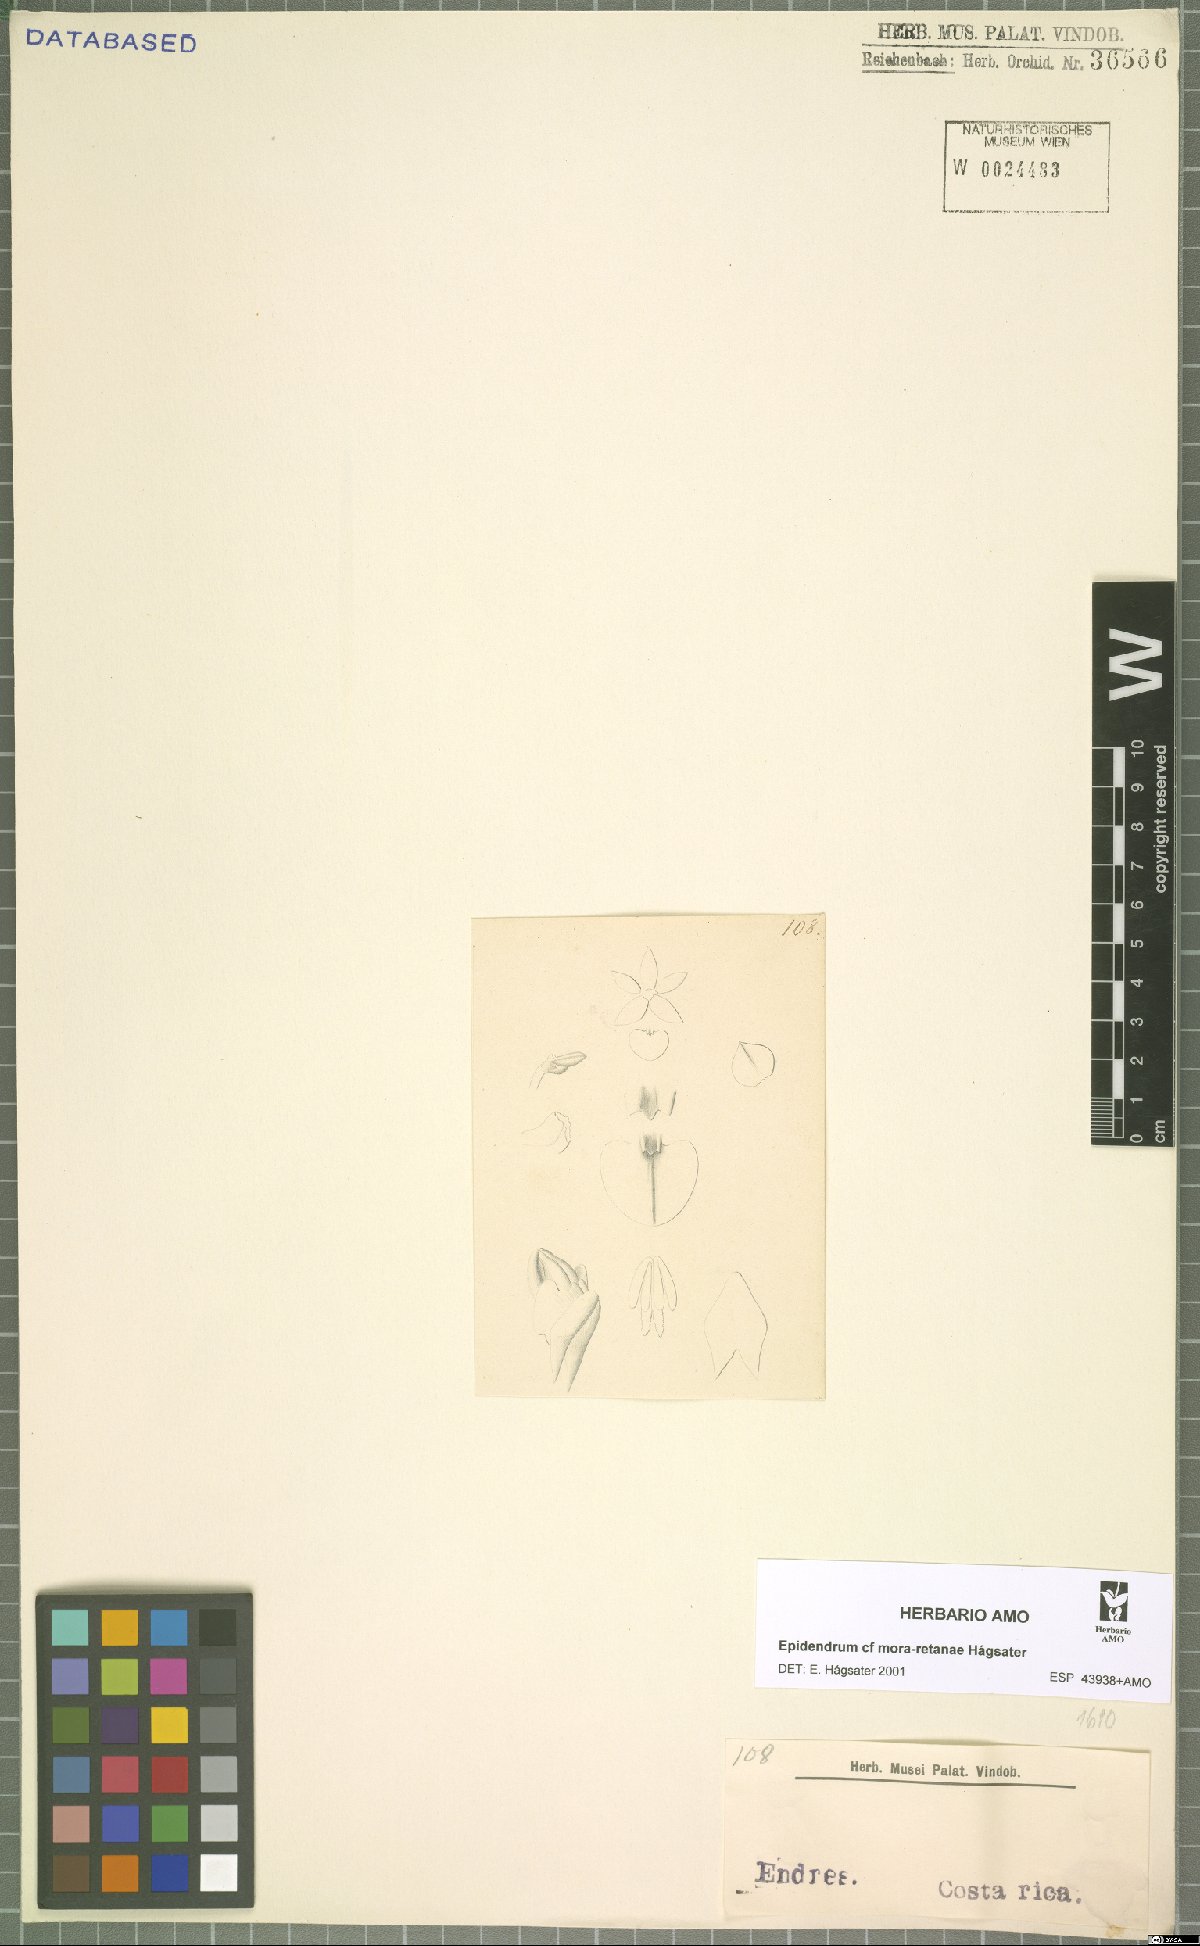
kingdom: Plantae
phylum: Tracheophyta
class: Liliopsida
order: Asparagales
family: Orchidaceae
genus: Epidendrum
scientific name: Epidendrum mora-retanae
